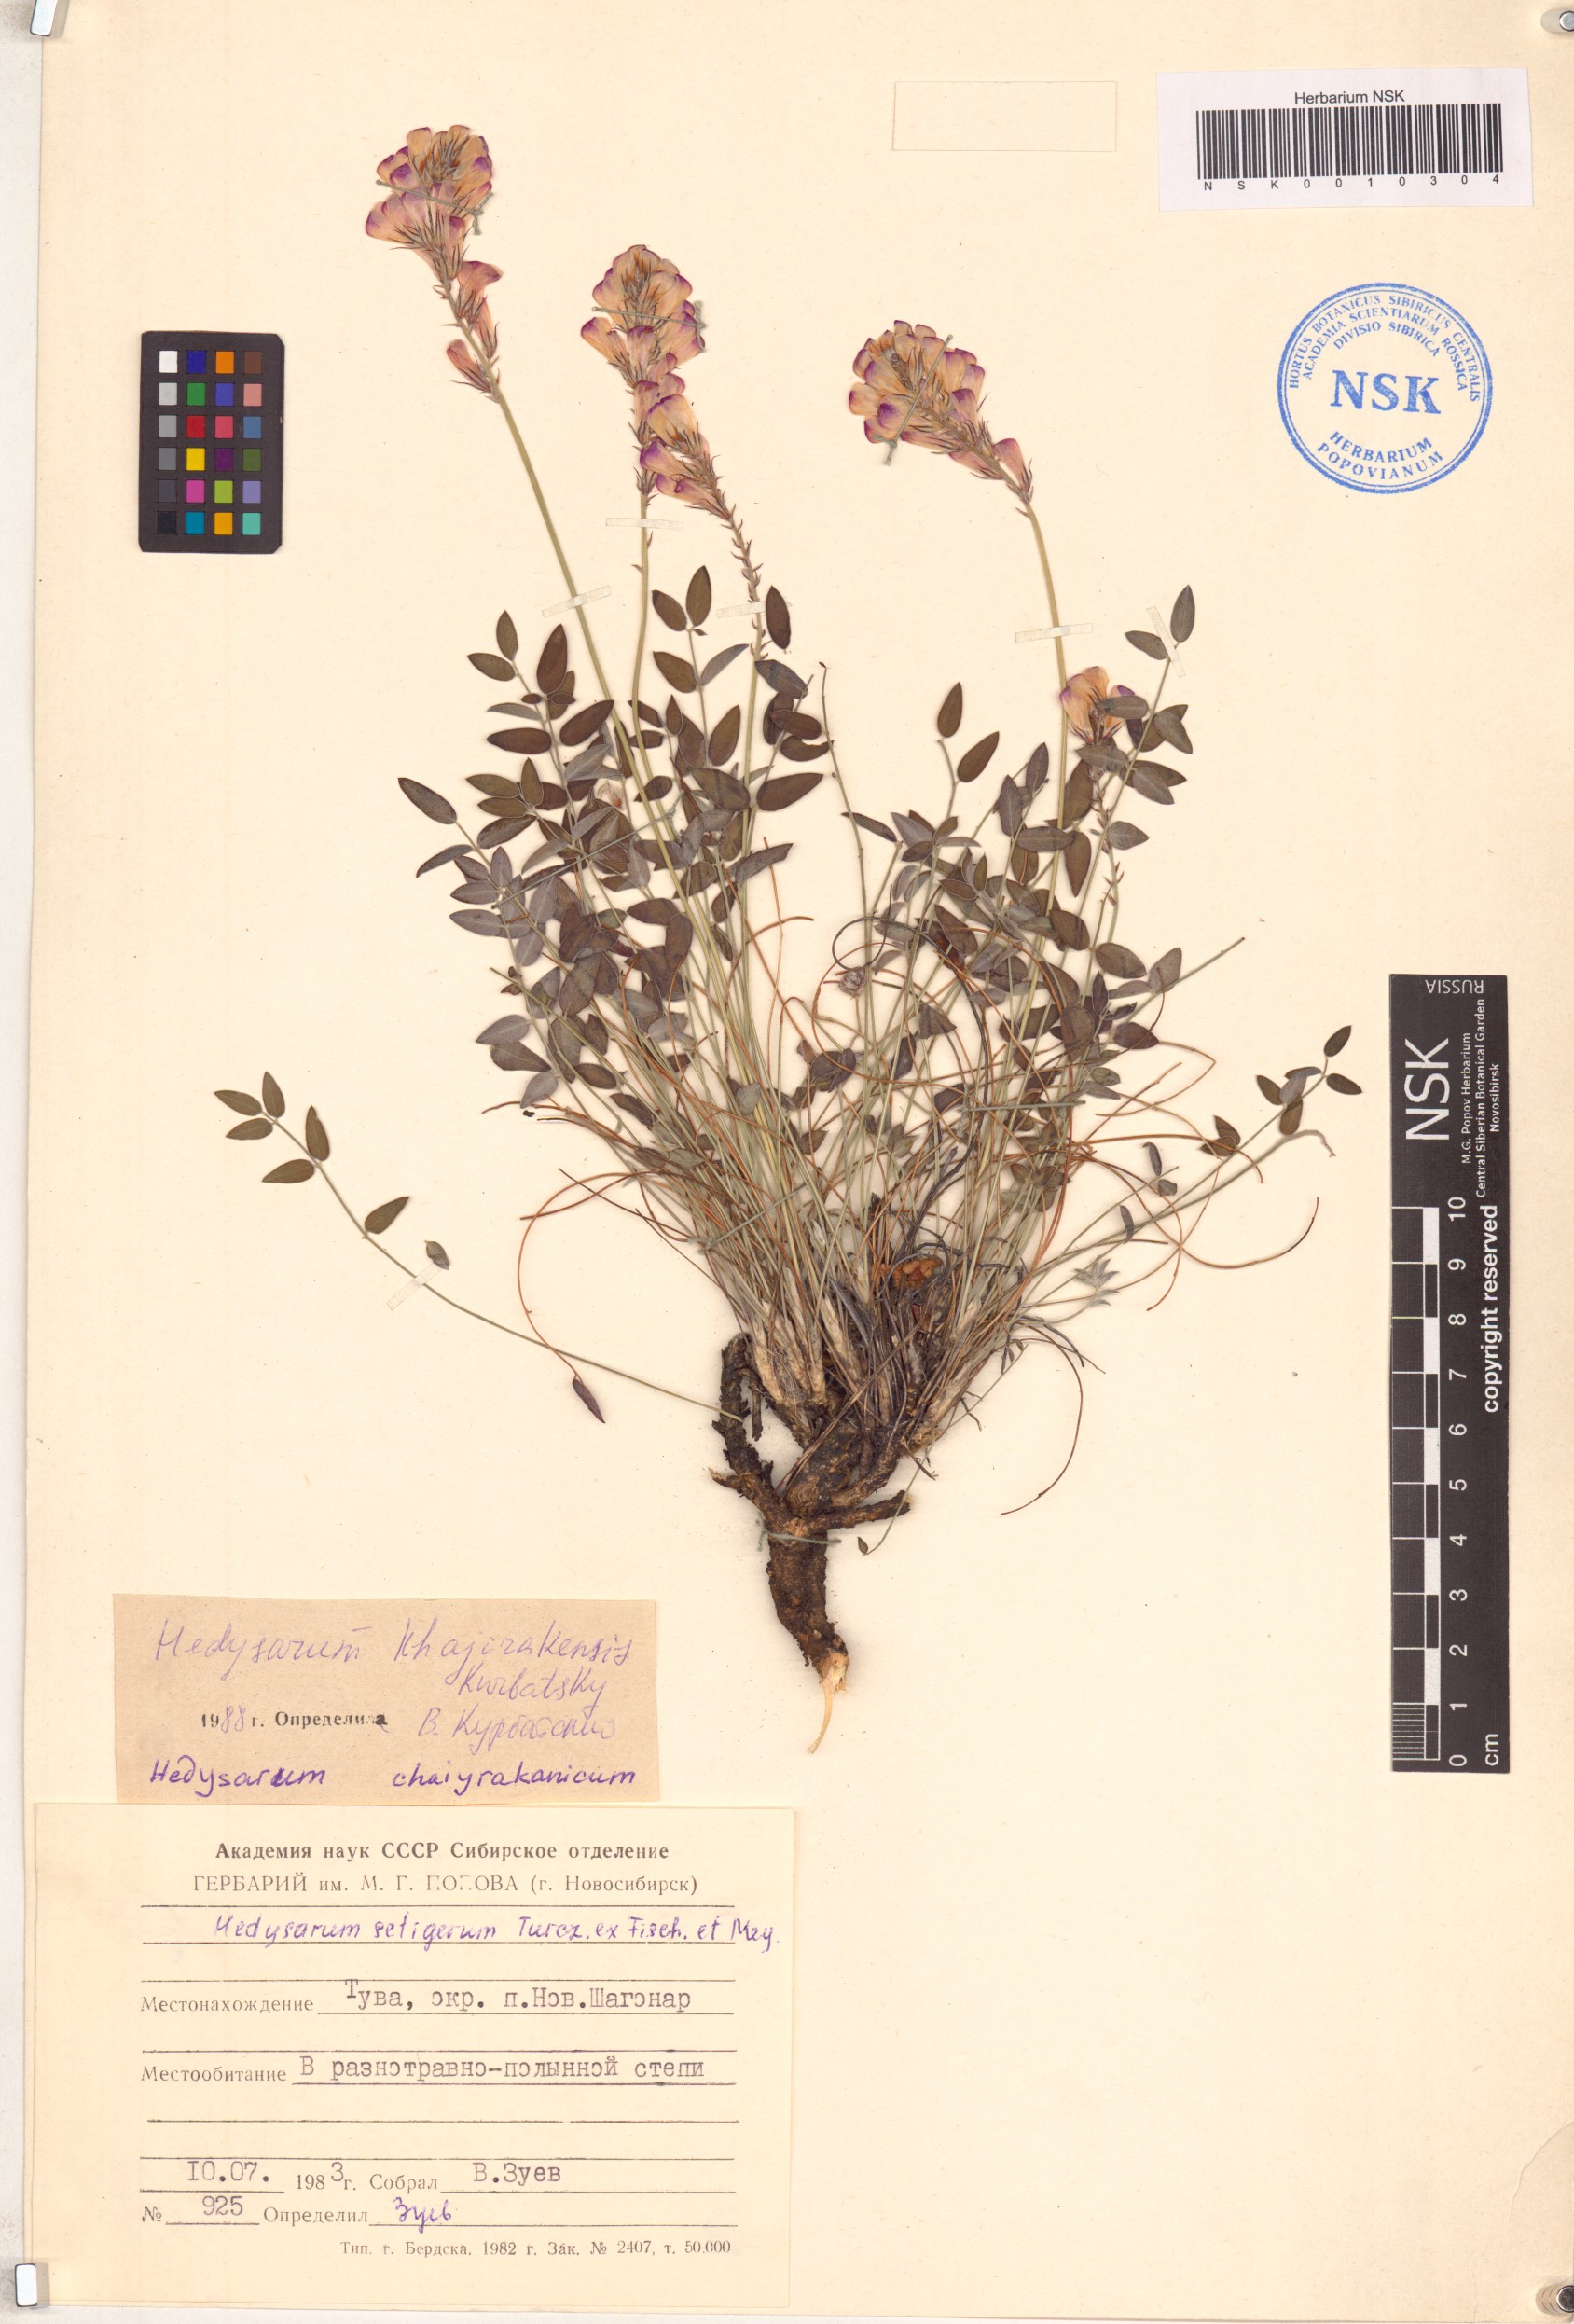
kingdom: Plantae
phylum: Tracheophyta
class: Magnoliopsida
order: Fabales
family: Fabaceae
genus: Hedysarum
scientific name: Hedysarum setigerum
